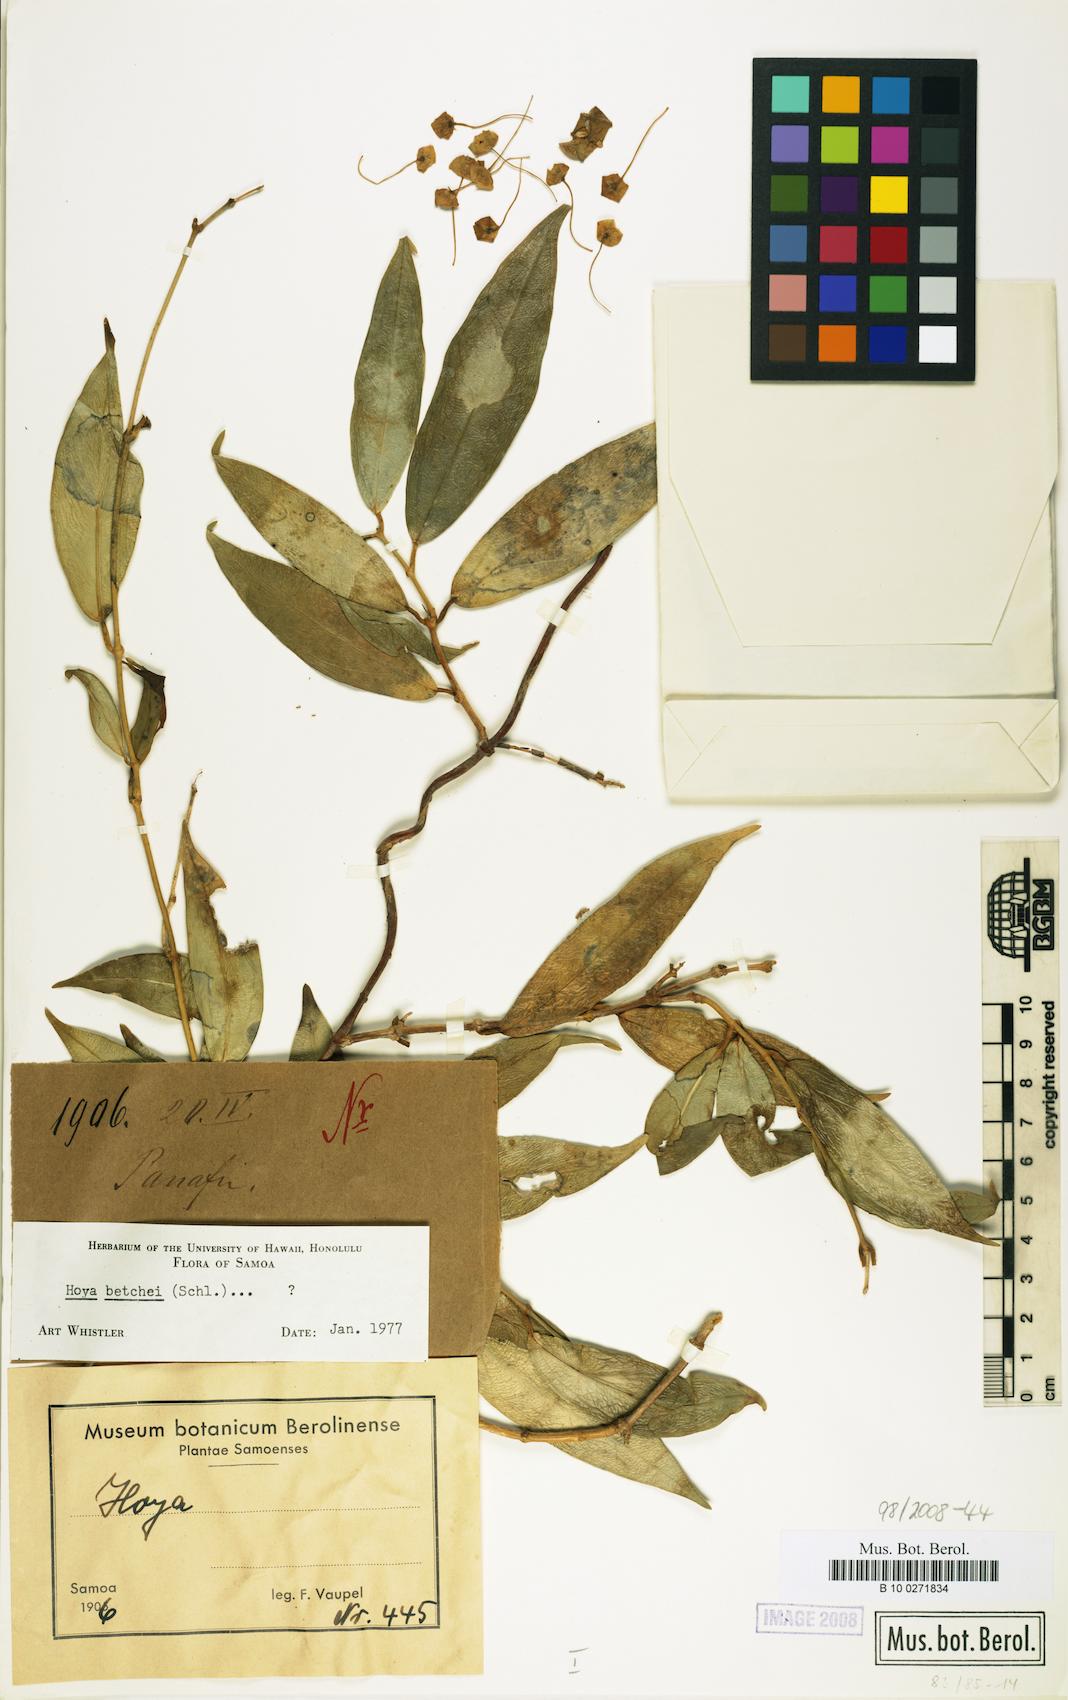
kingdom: Plantae
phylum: Tracheophyta
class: Magnoliopsida
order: Gentianales
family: Apocynaceae
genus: Hoya
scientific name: Hoya betchei
